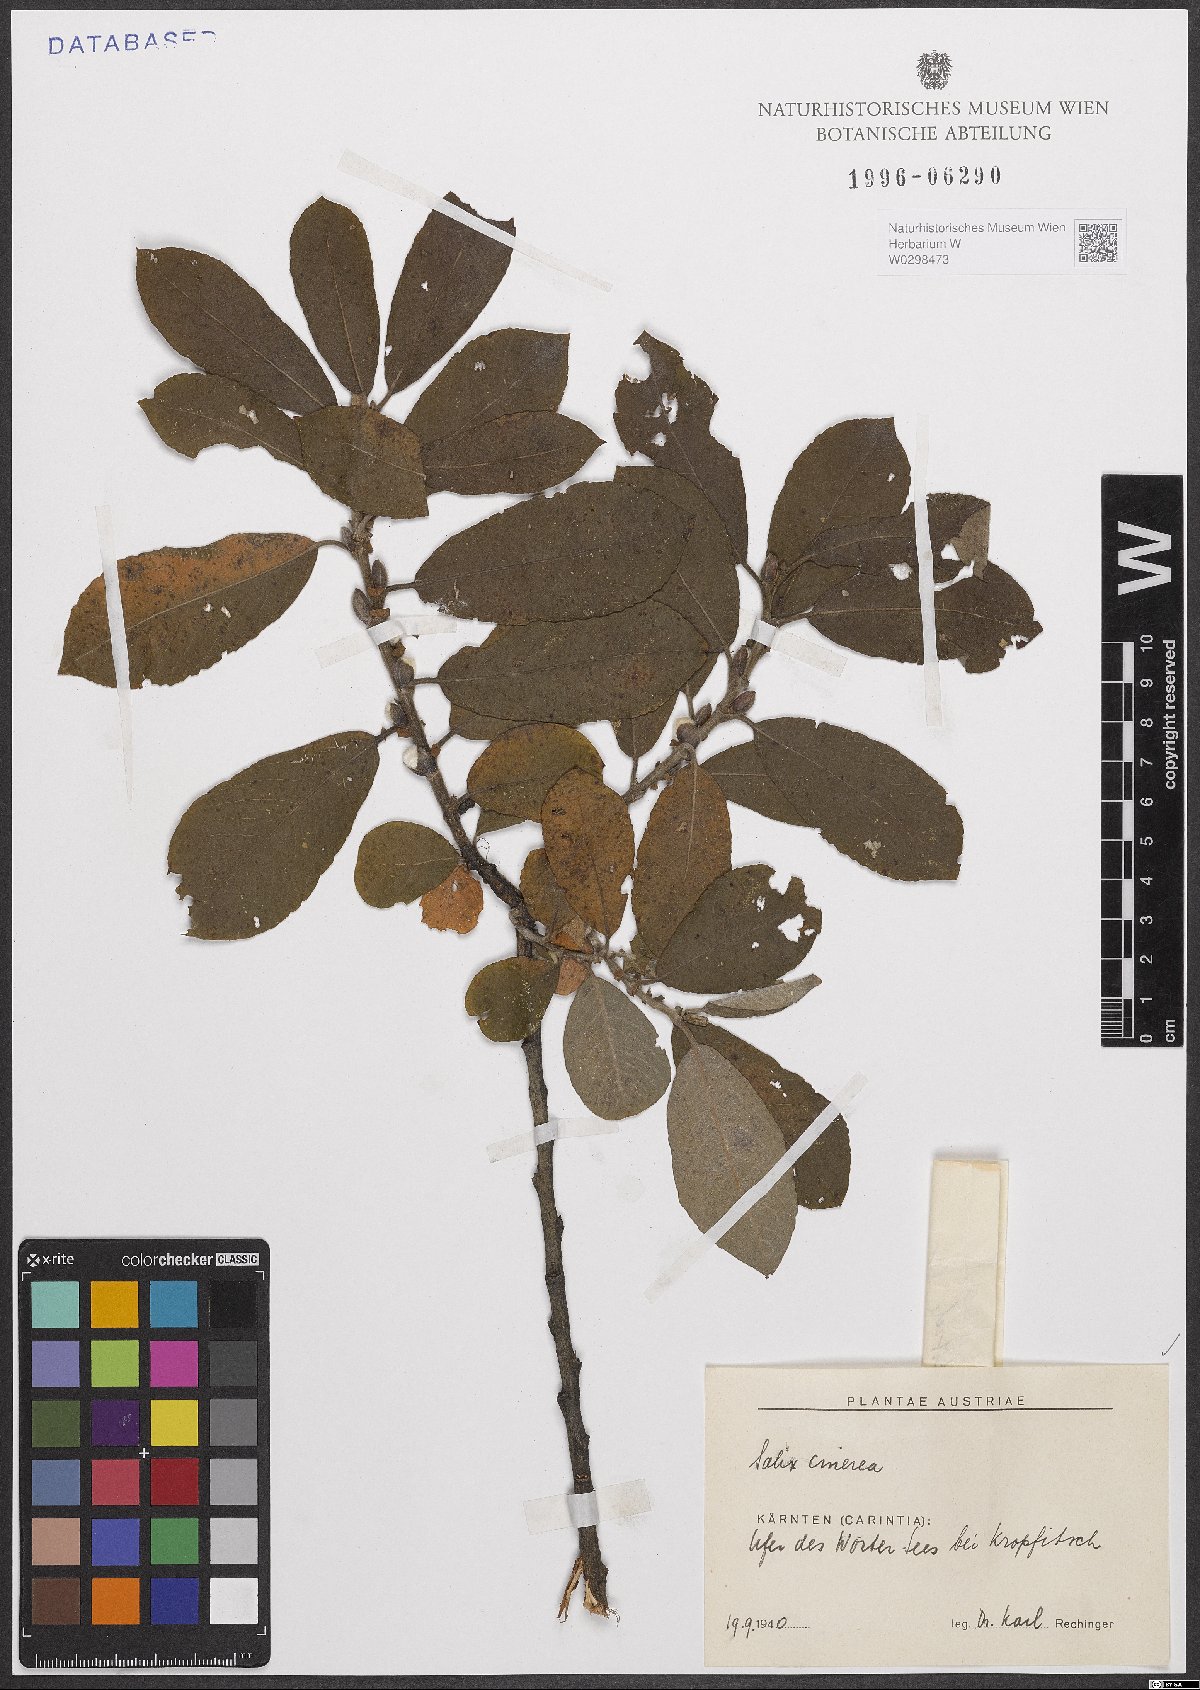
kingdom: Plantae
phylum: Tracheophyta
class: Magnoliopsida
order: Malpighiales
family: Salicaceae
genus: Salix
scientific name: Salix cinerea
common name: Common sallow
